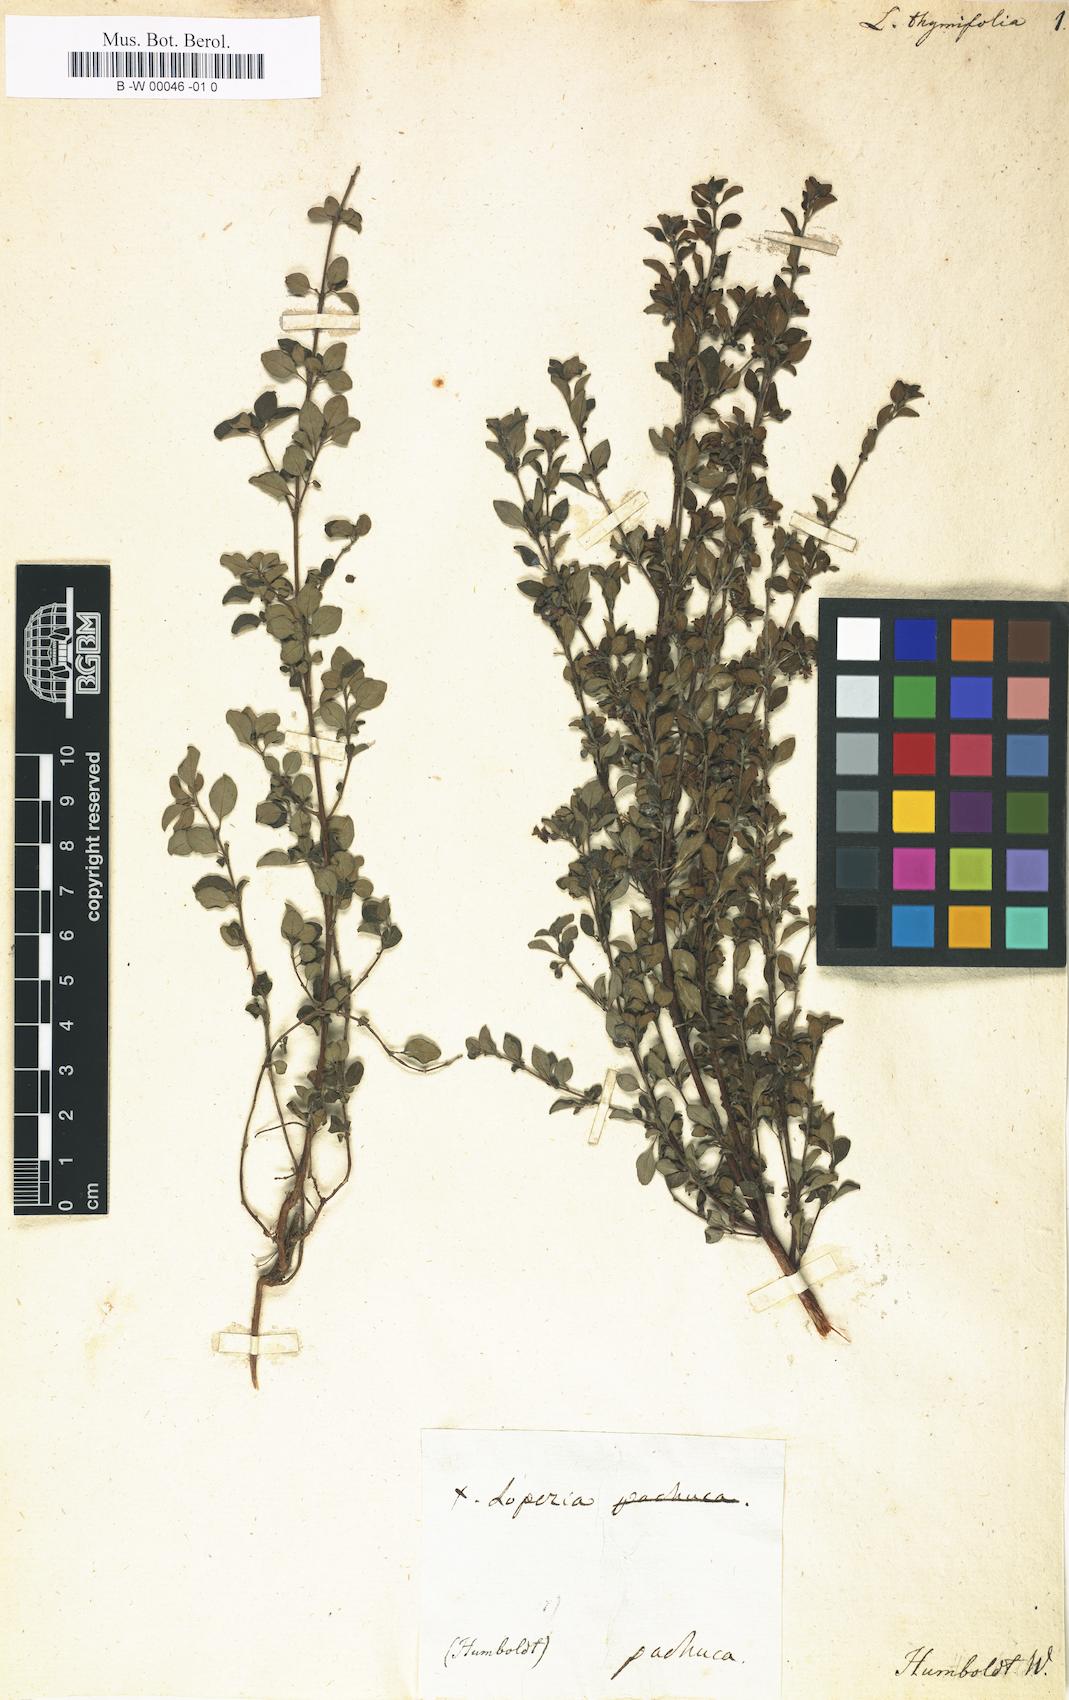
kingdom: Plantae
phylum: Tracheophyta
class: Magnoliopsida
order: Myrtales
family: Onagraceae
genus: Lopezia
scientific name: Lopezia thymifolia
